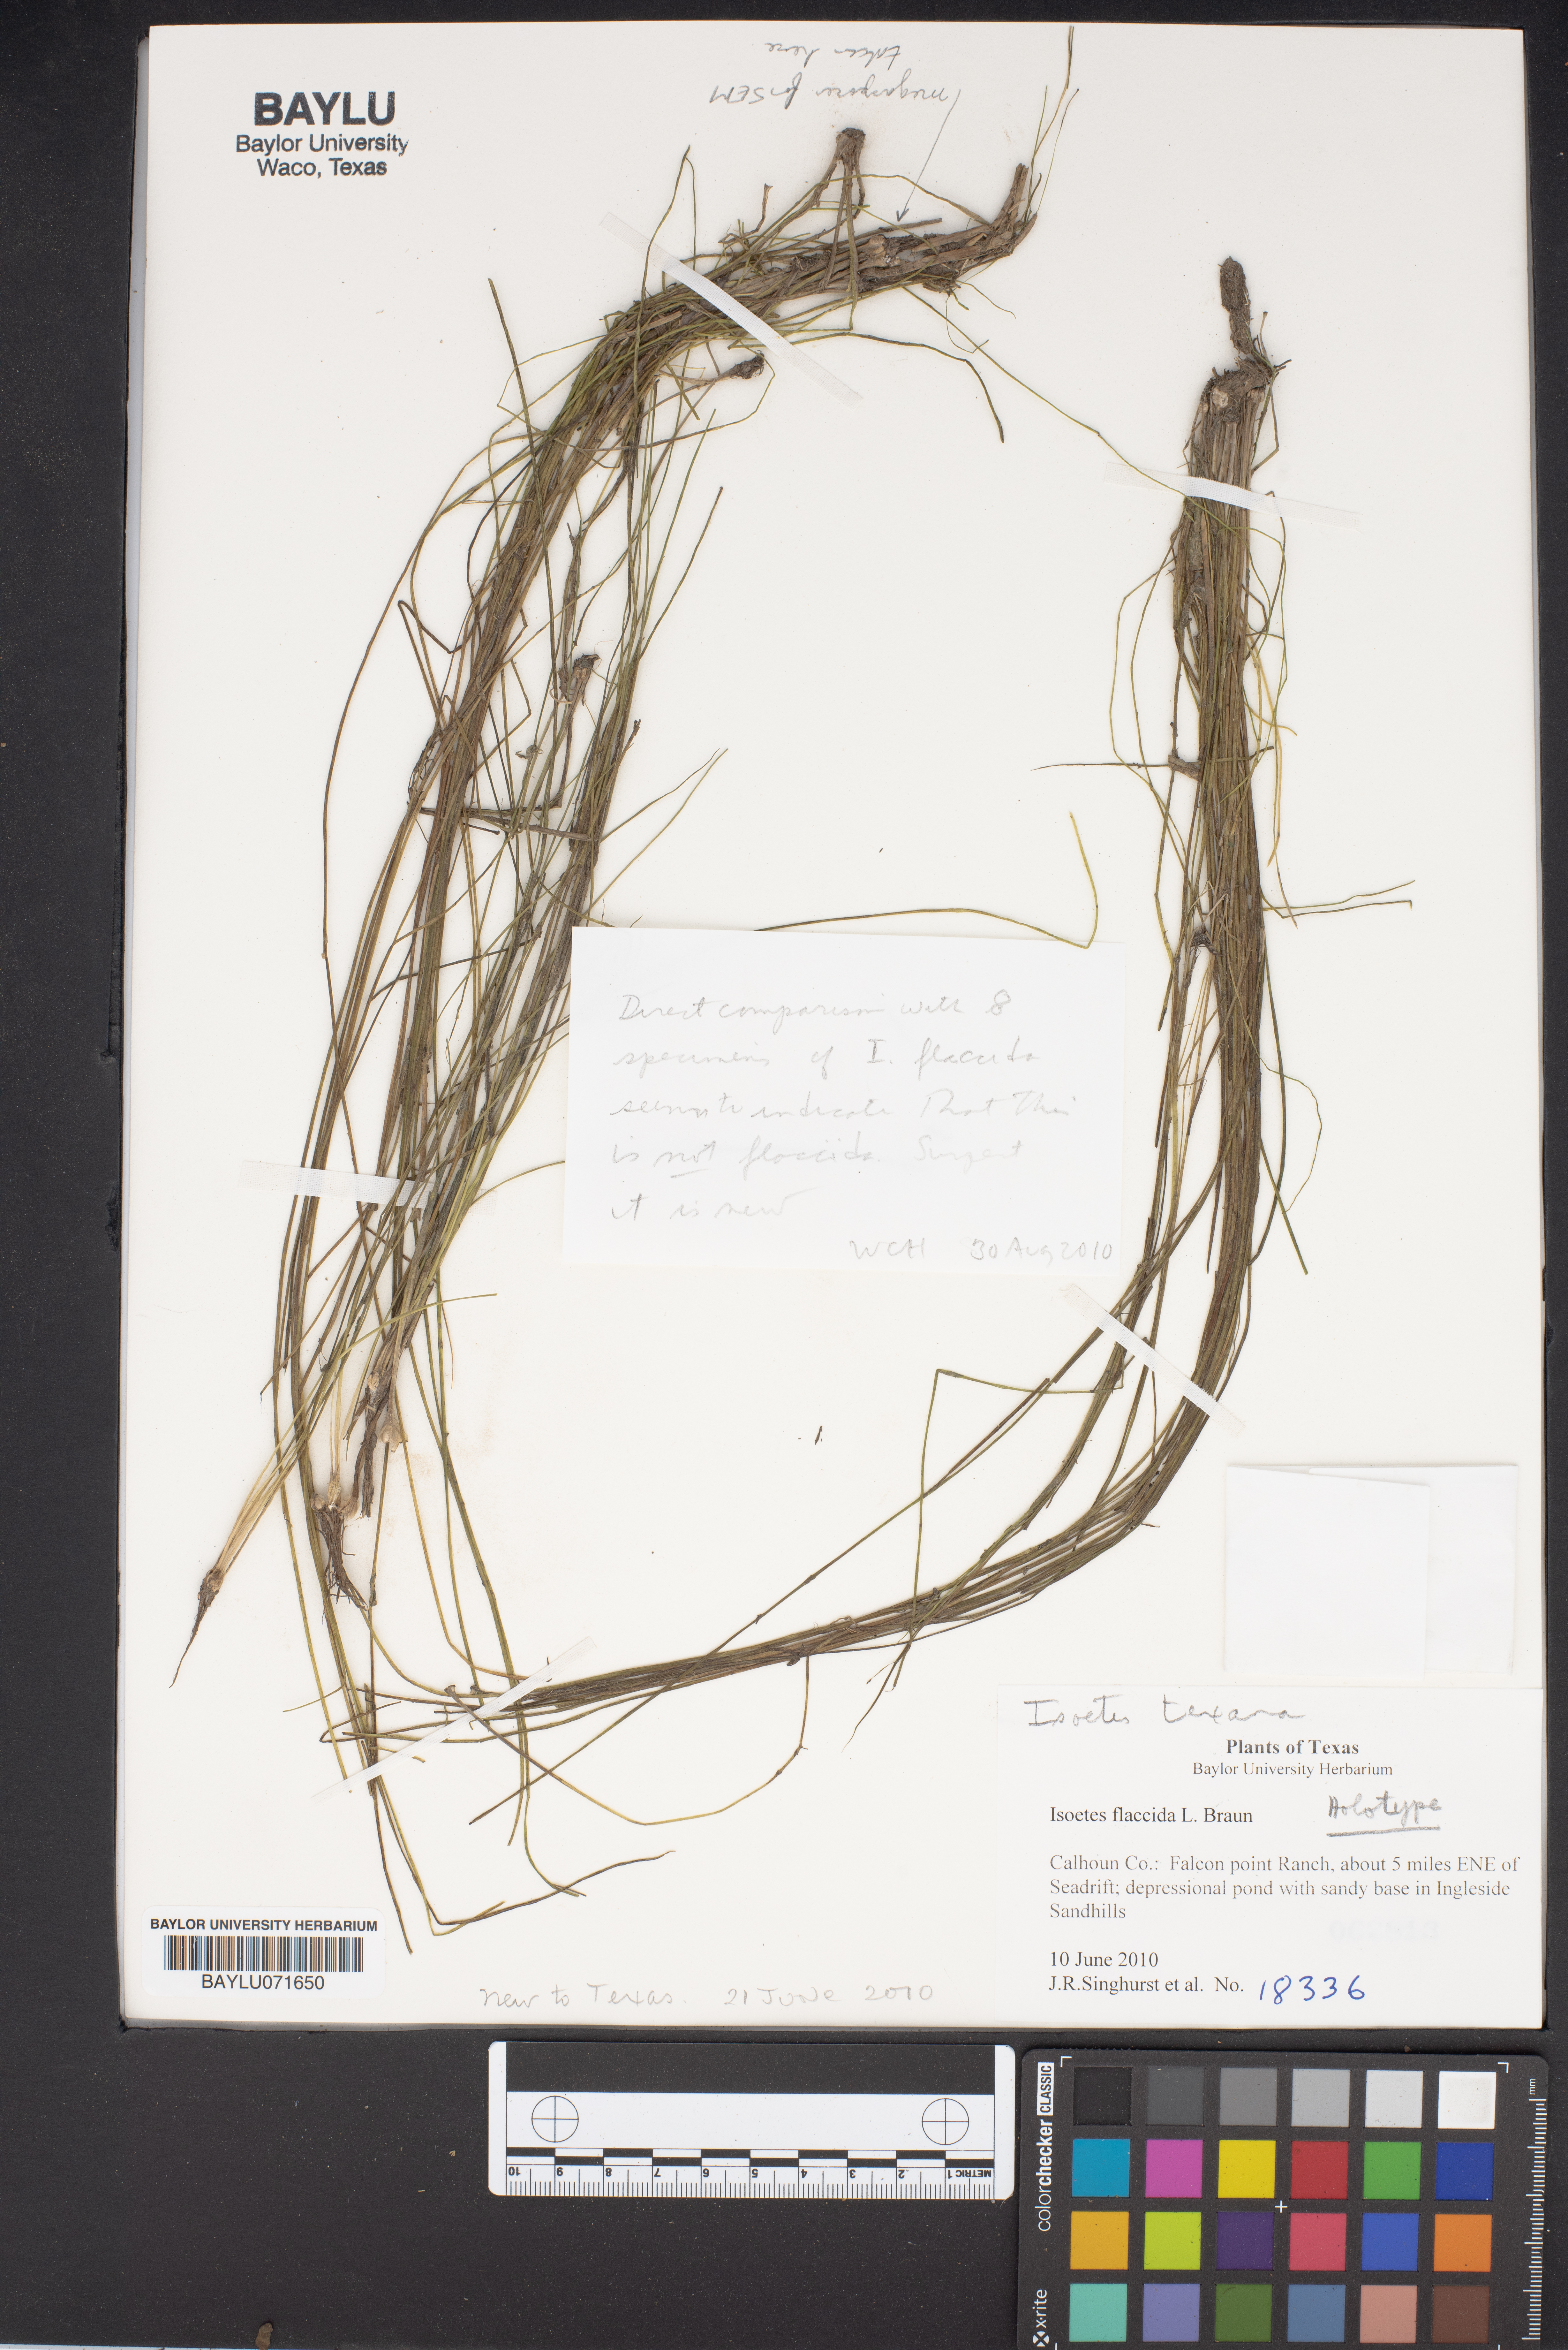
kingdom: Plantae
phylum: Tracheophyta
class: Lycopodiopsida
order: Isoetales
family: Isoetaceae
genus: Isoetes
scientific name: Isoetes texana
